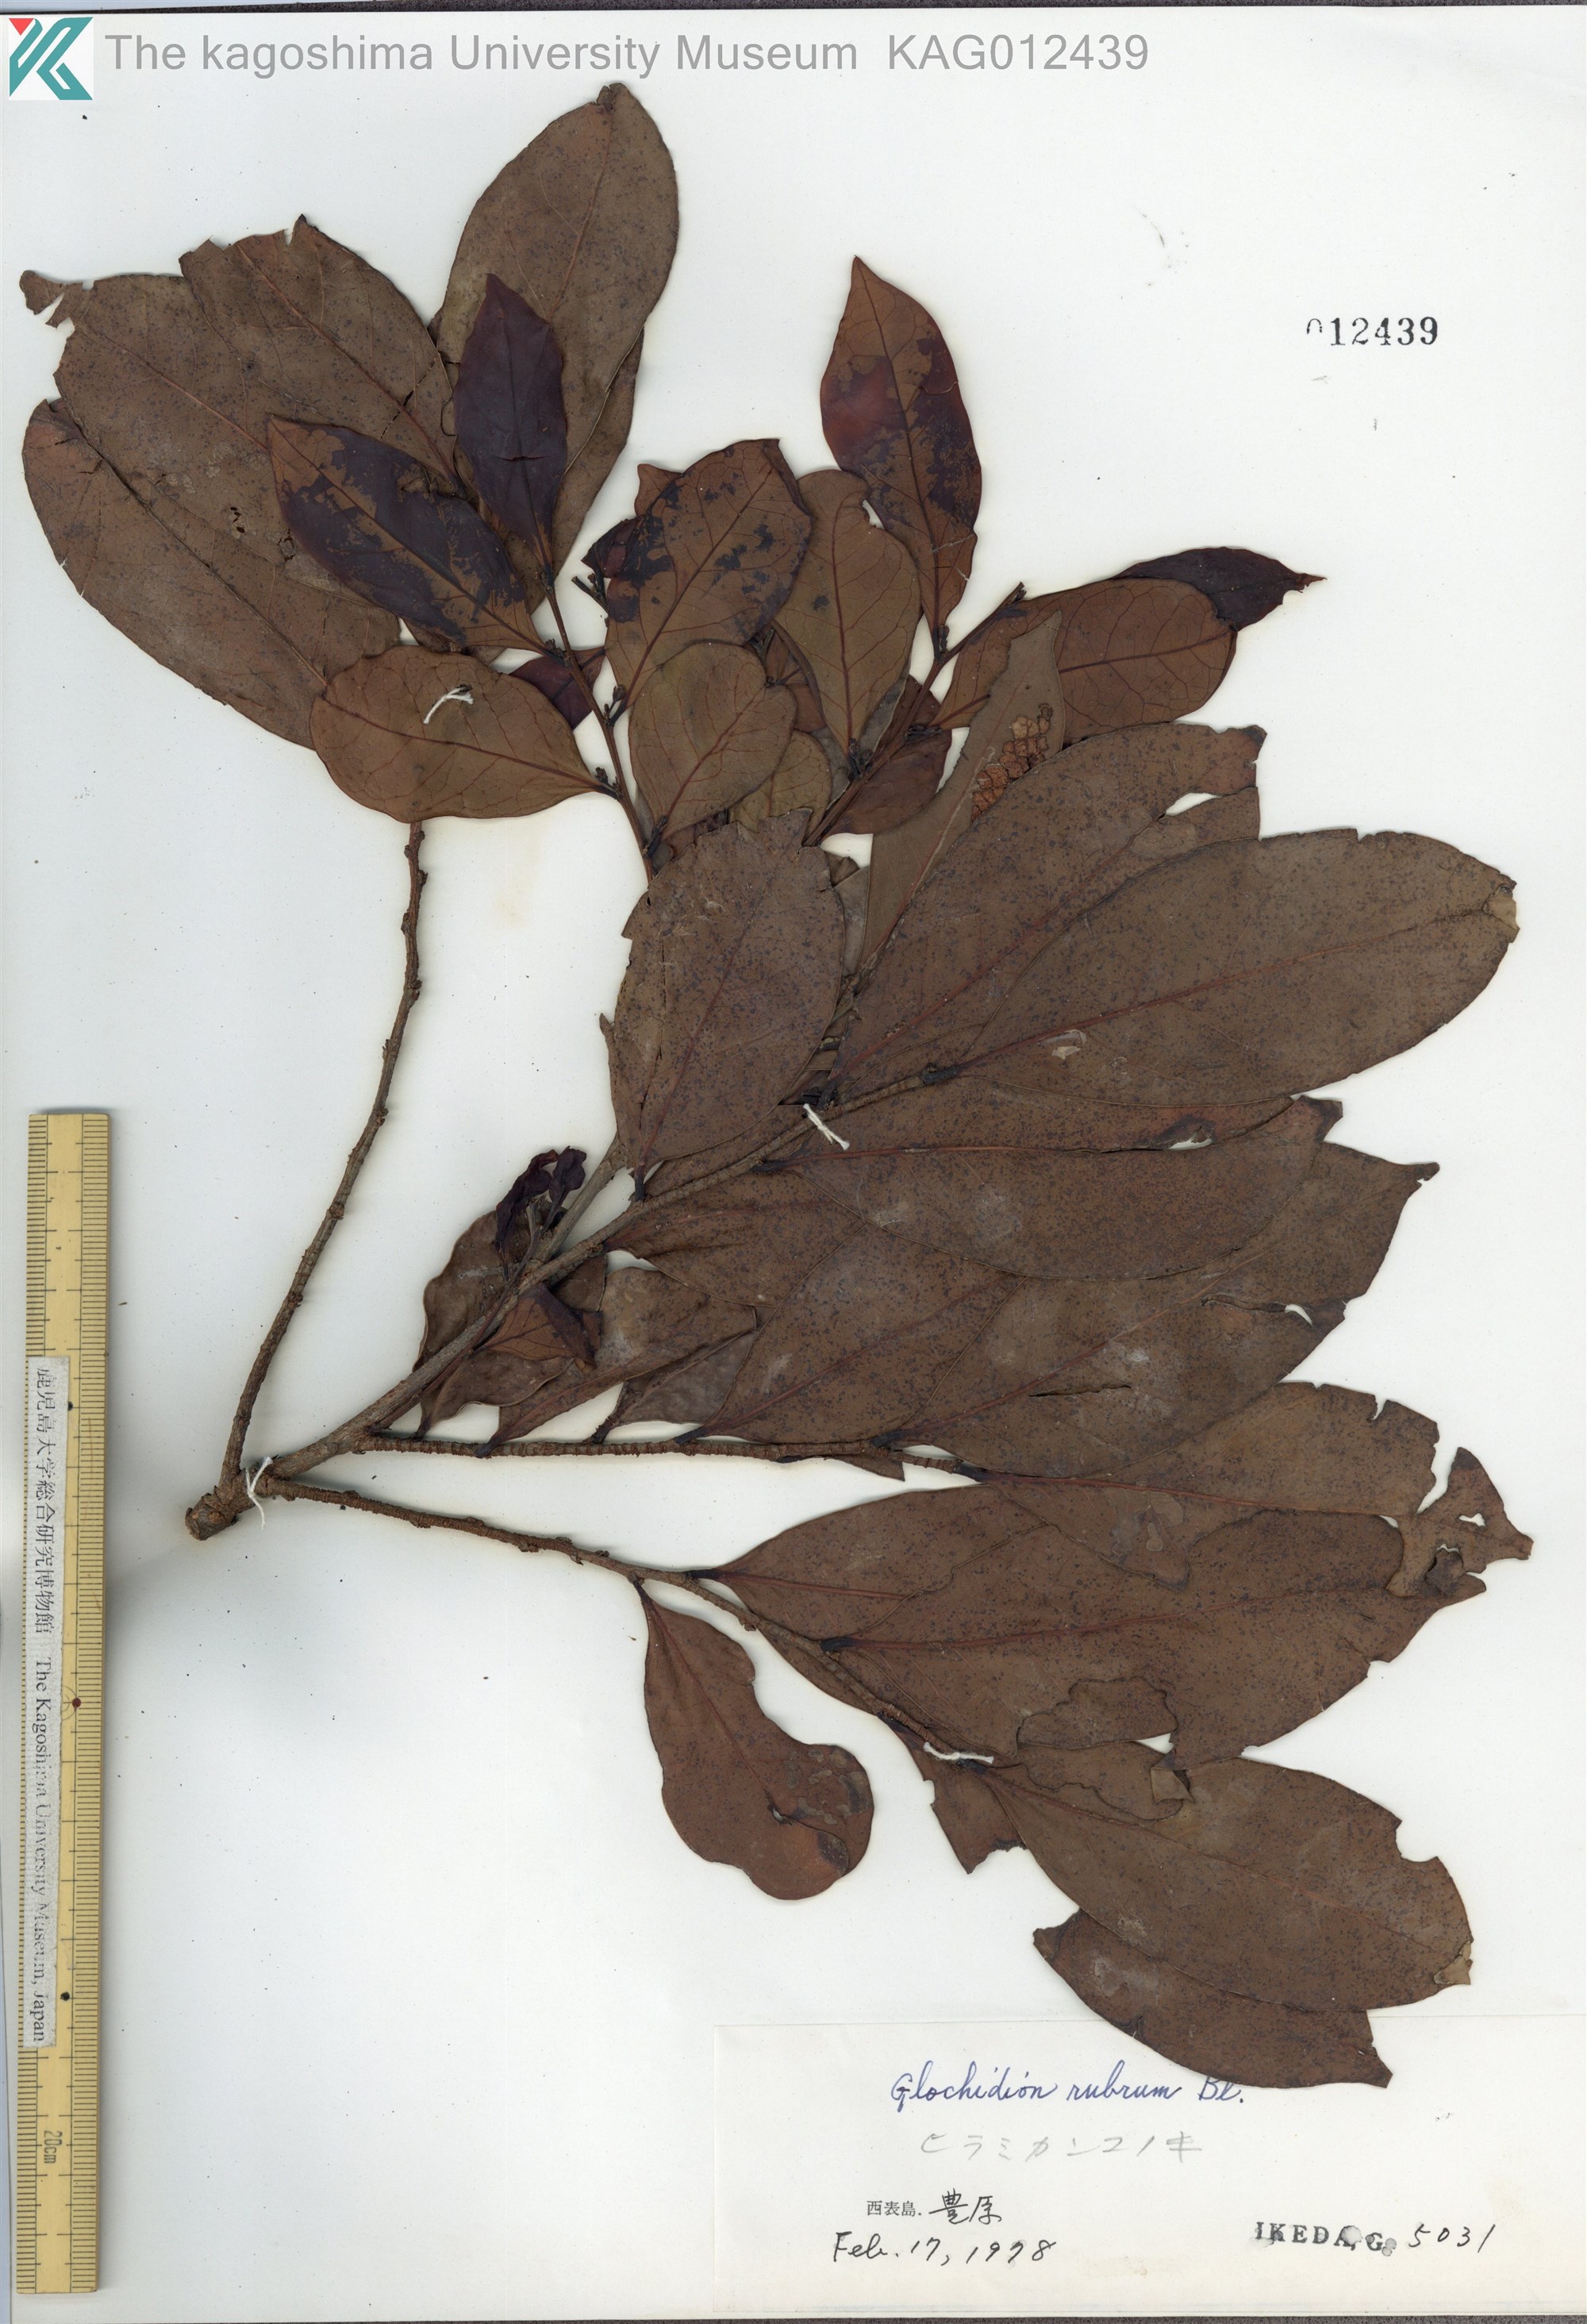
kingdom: Plantae
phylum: Tracheophyta
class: Magnoliopsida
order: Malpighiales
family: Phyllanthaceae
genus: Glochidion
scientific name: Glochidion rubrum
